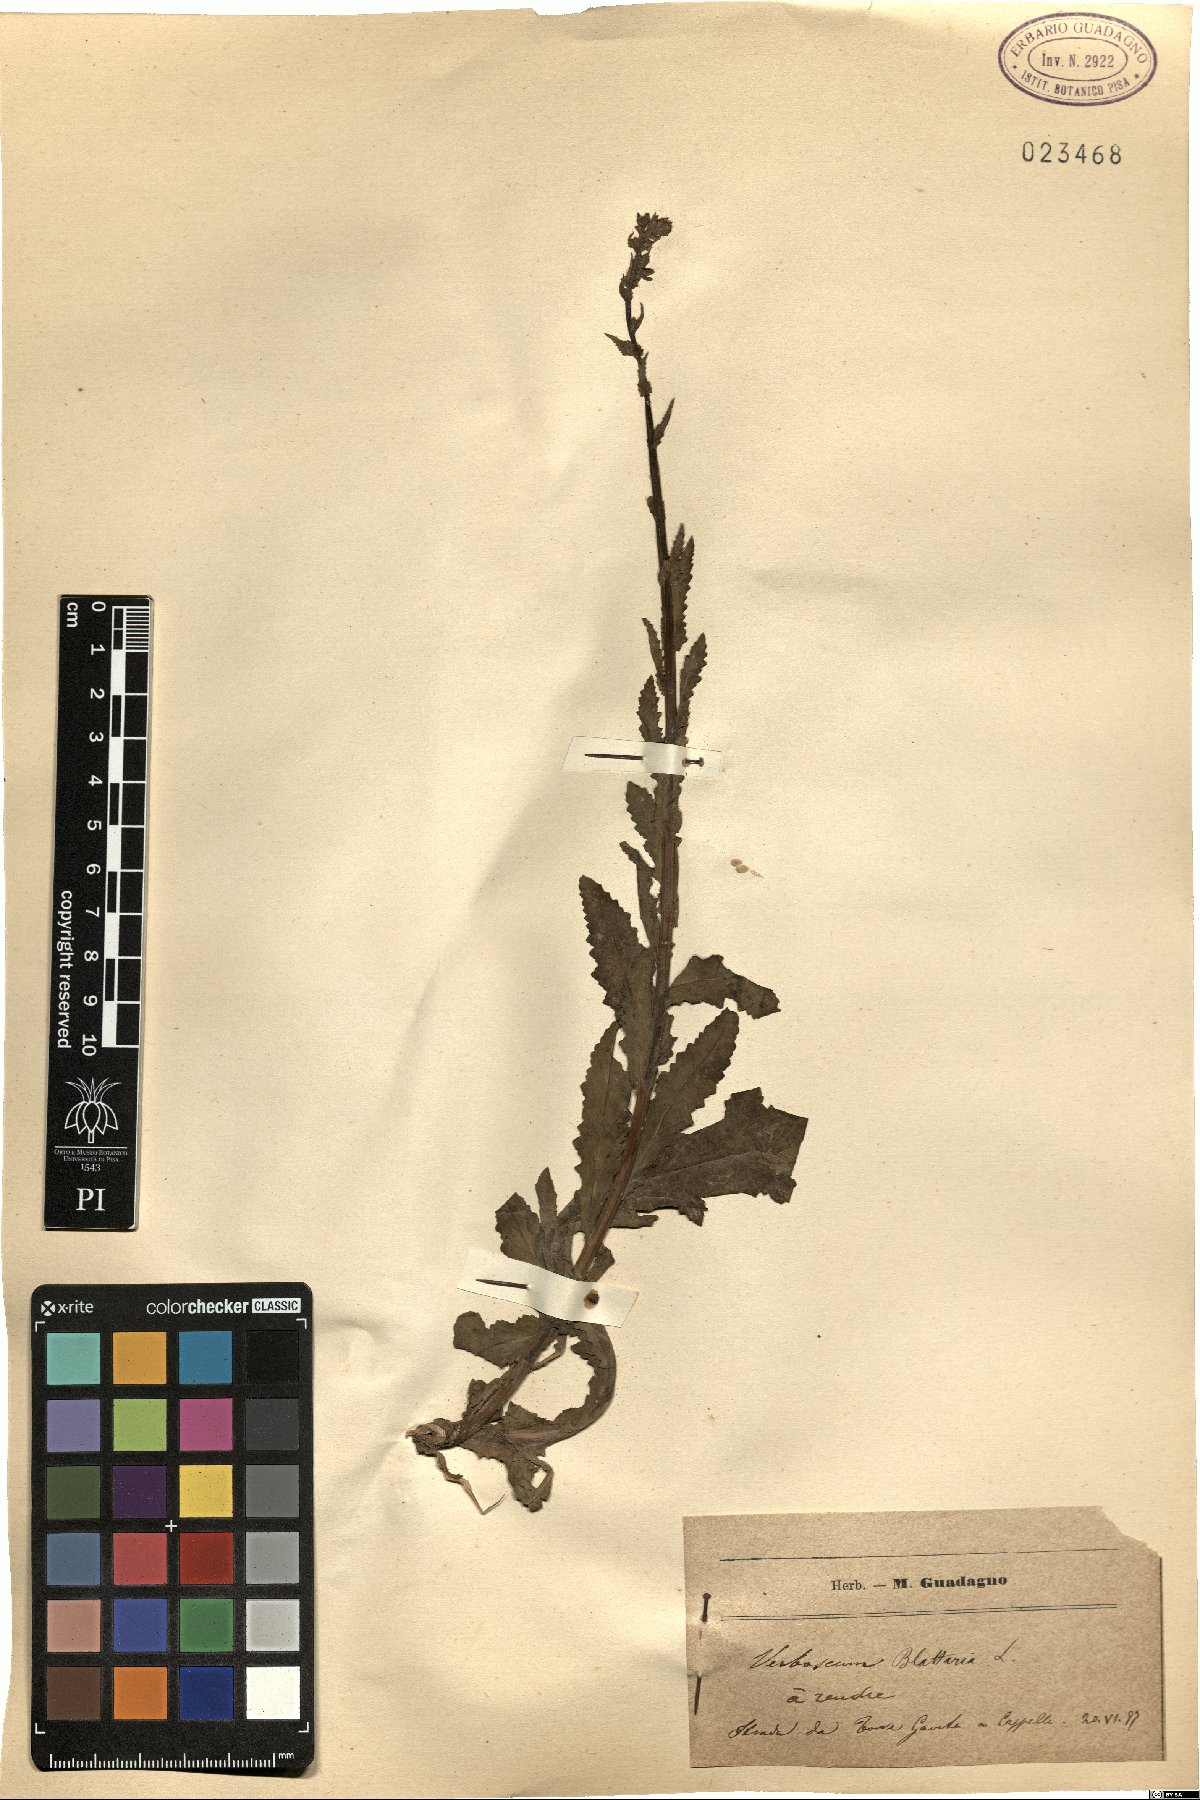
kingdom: Plantae
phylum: Tracheophyta
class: Magnoliopsida
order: Lamiales
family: Scrophulariaceae
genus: Verbascum
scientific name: Verbascum blattaria
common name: Moth mullein
